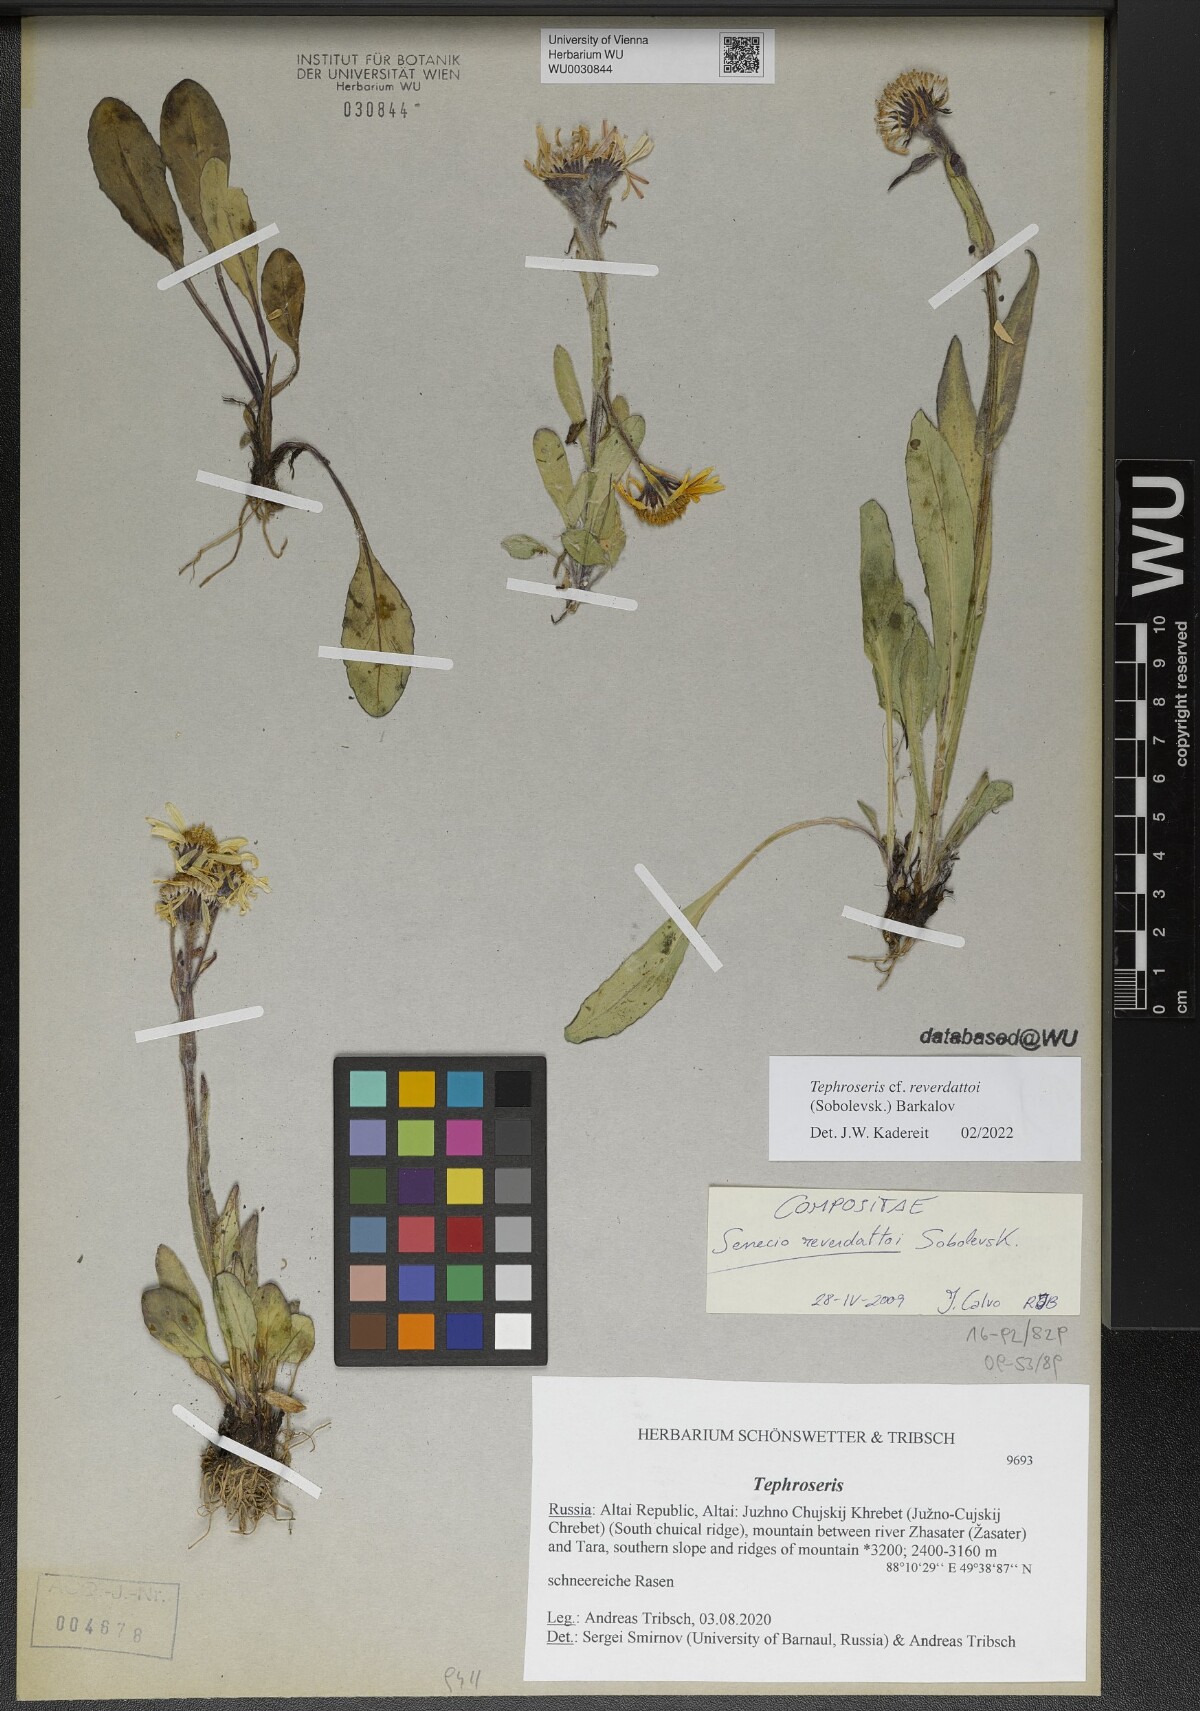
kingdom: Plantae
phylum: Tracheophyta
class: Magnoliopsida
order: Asterales
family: Asteraceae
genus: Tephroseris
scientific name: Tephroseris turczaninovii
